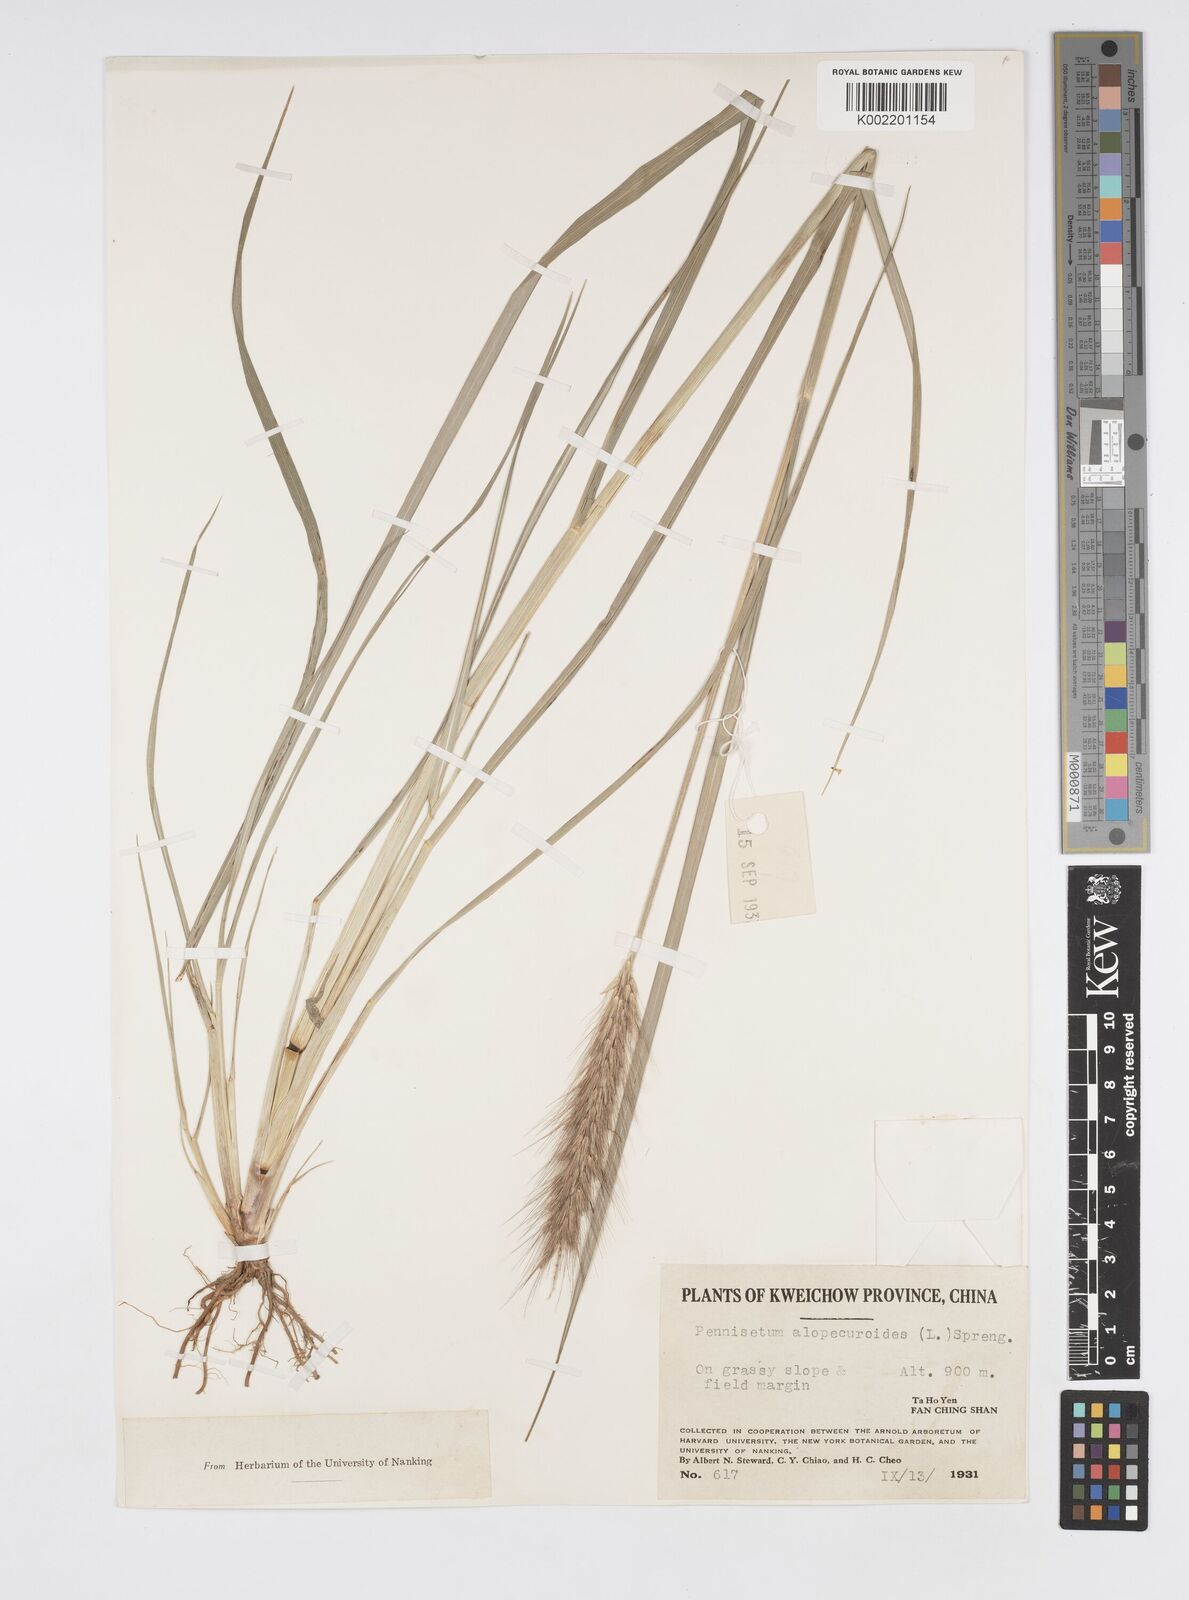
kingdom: Plantae
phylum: Tracheophyta
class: Liliopsida
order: Poales
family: Poaceae
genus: Cenchrus
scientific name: Cenchrus alopecuroides
